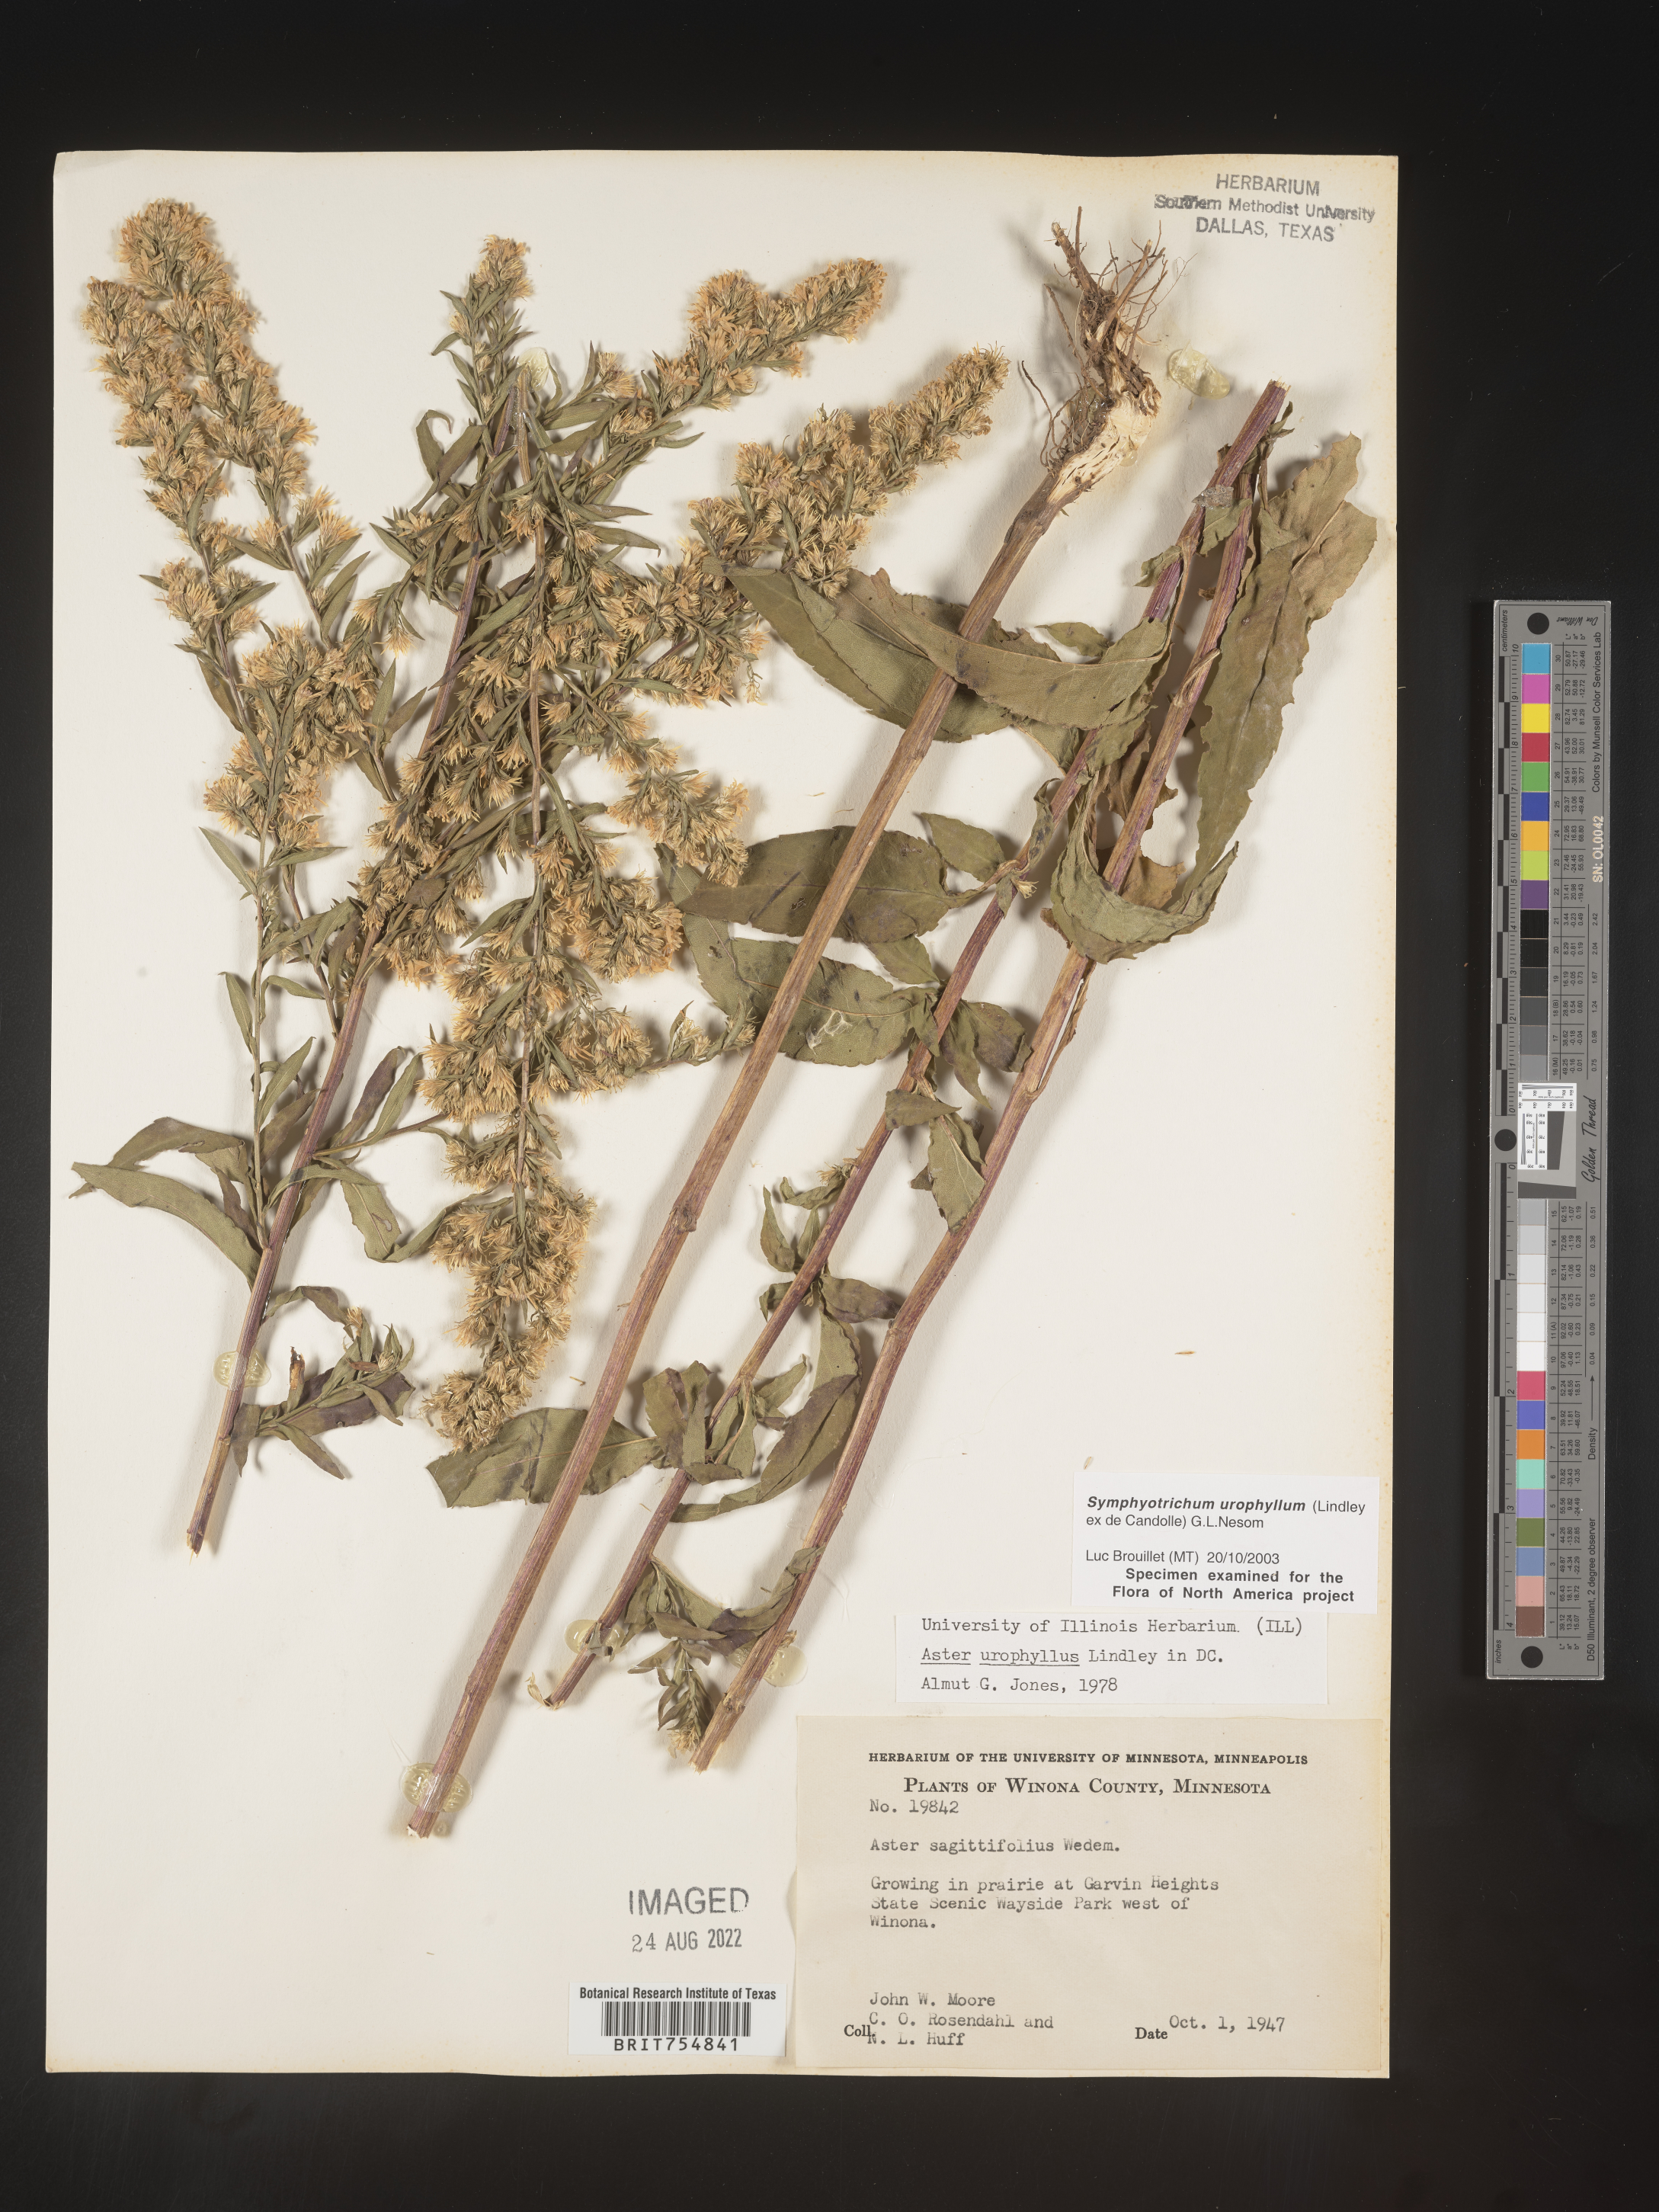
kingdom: Plantae
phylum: Tracheophyta
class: Magnoliopsida
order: Asterales
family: Asteraceae
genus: Symphyotrichum
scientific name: Symphyotrichum urophyllum
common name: Arrow-leaved aster
